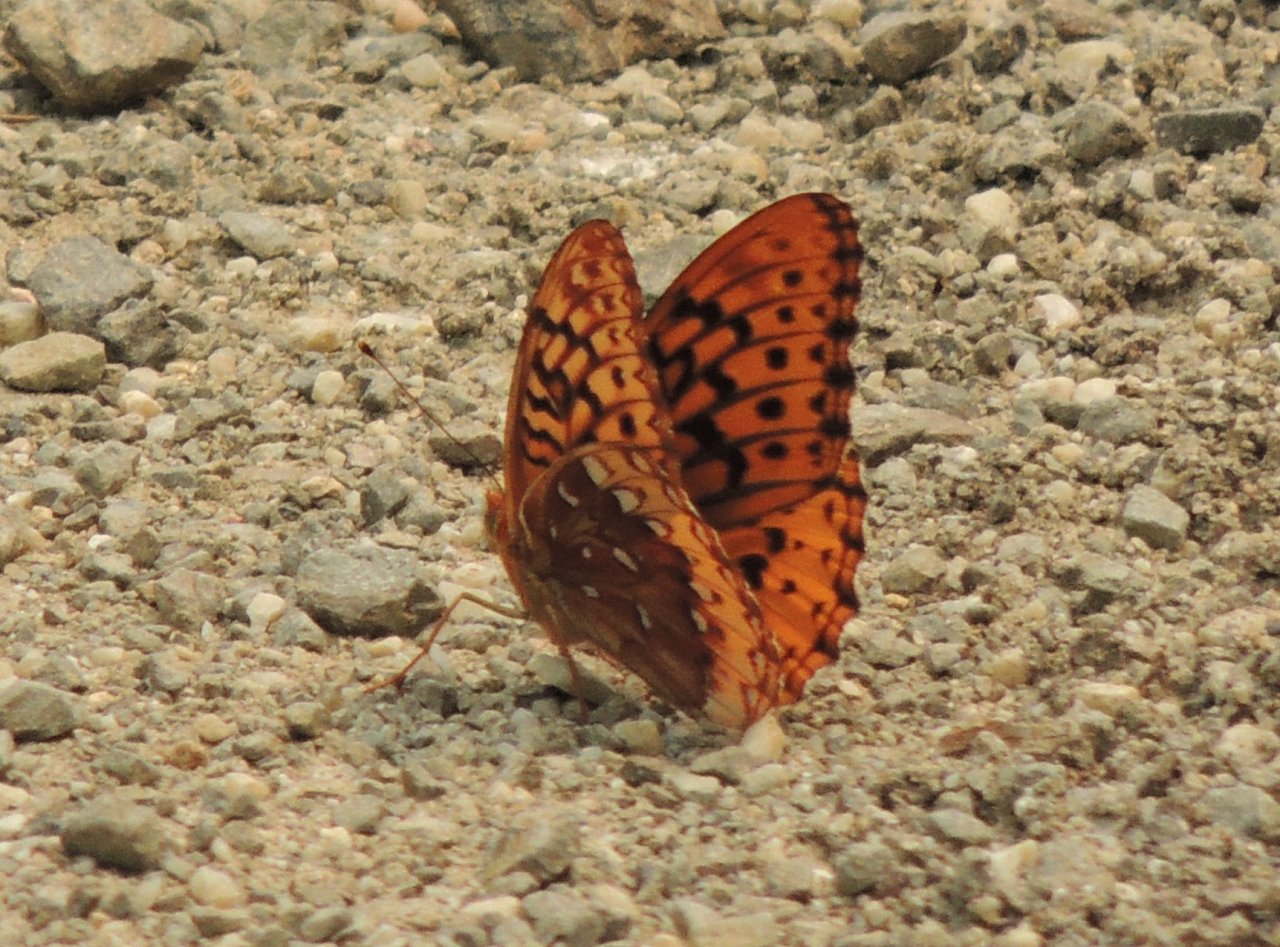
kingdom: Animalia
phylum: Arthropoda
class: Insecta
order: Lepidoptera
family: Nymphalidae
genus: Speyeria
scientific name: Speyeria cybele
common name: Great Spangled Fritillary
